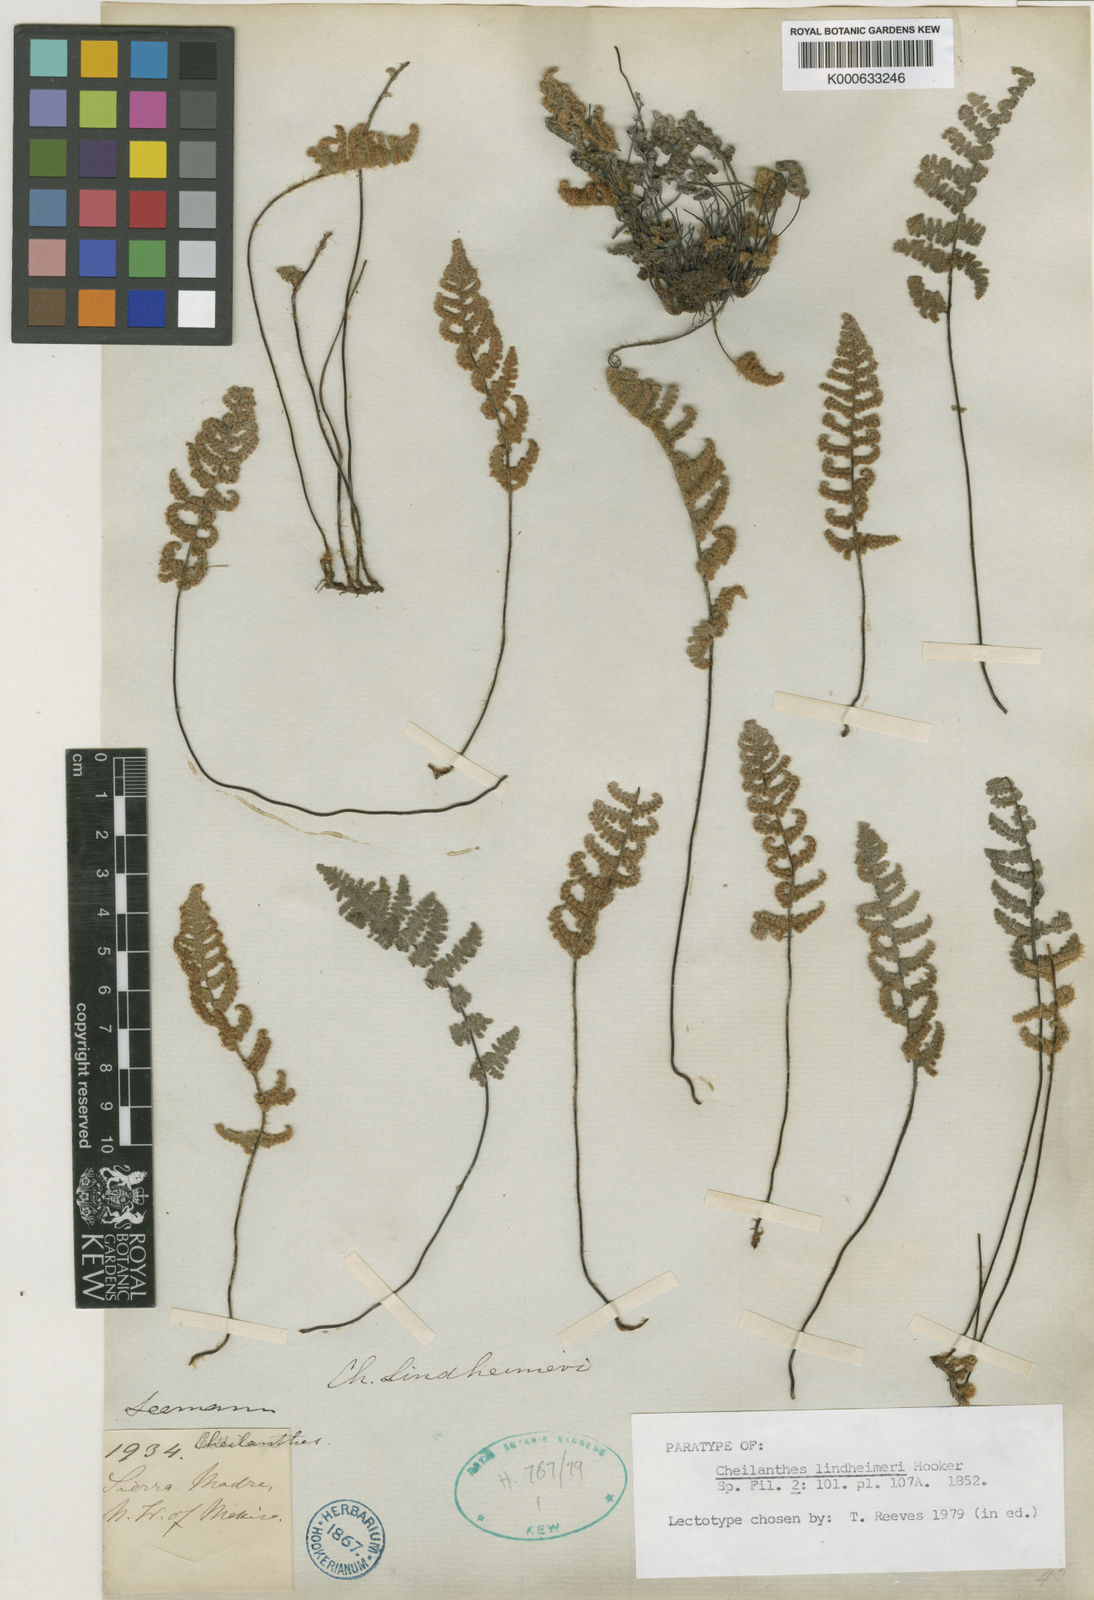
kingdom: Plantae
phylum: Tracheophyta
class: Polypodiopsida
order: Polypodiales
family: Pteridaceae
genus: Myriopteris
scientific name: Myriopteris lindheimeri
